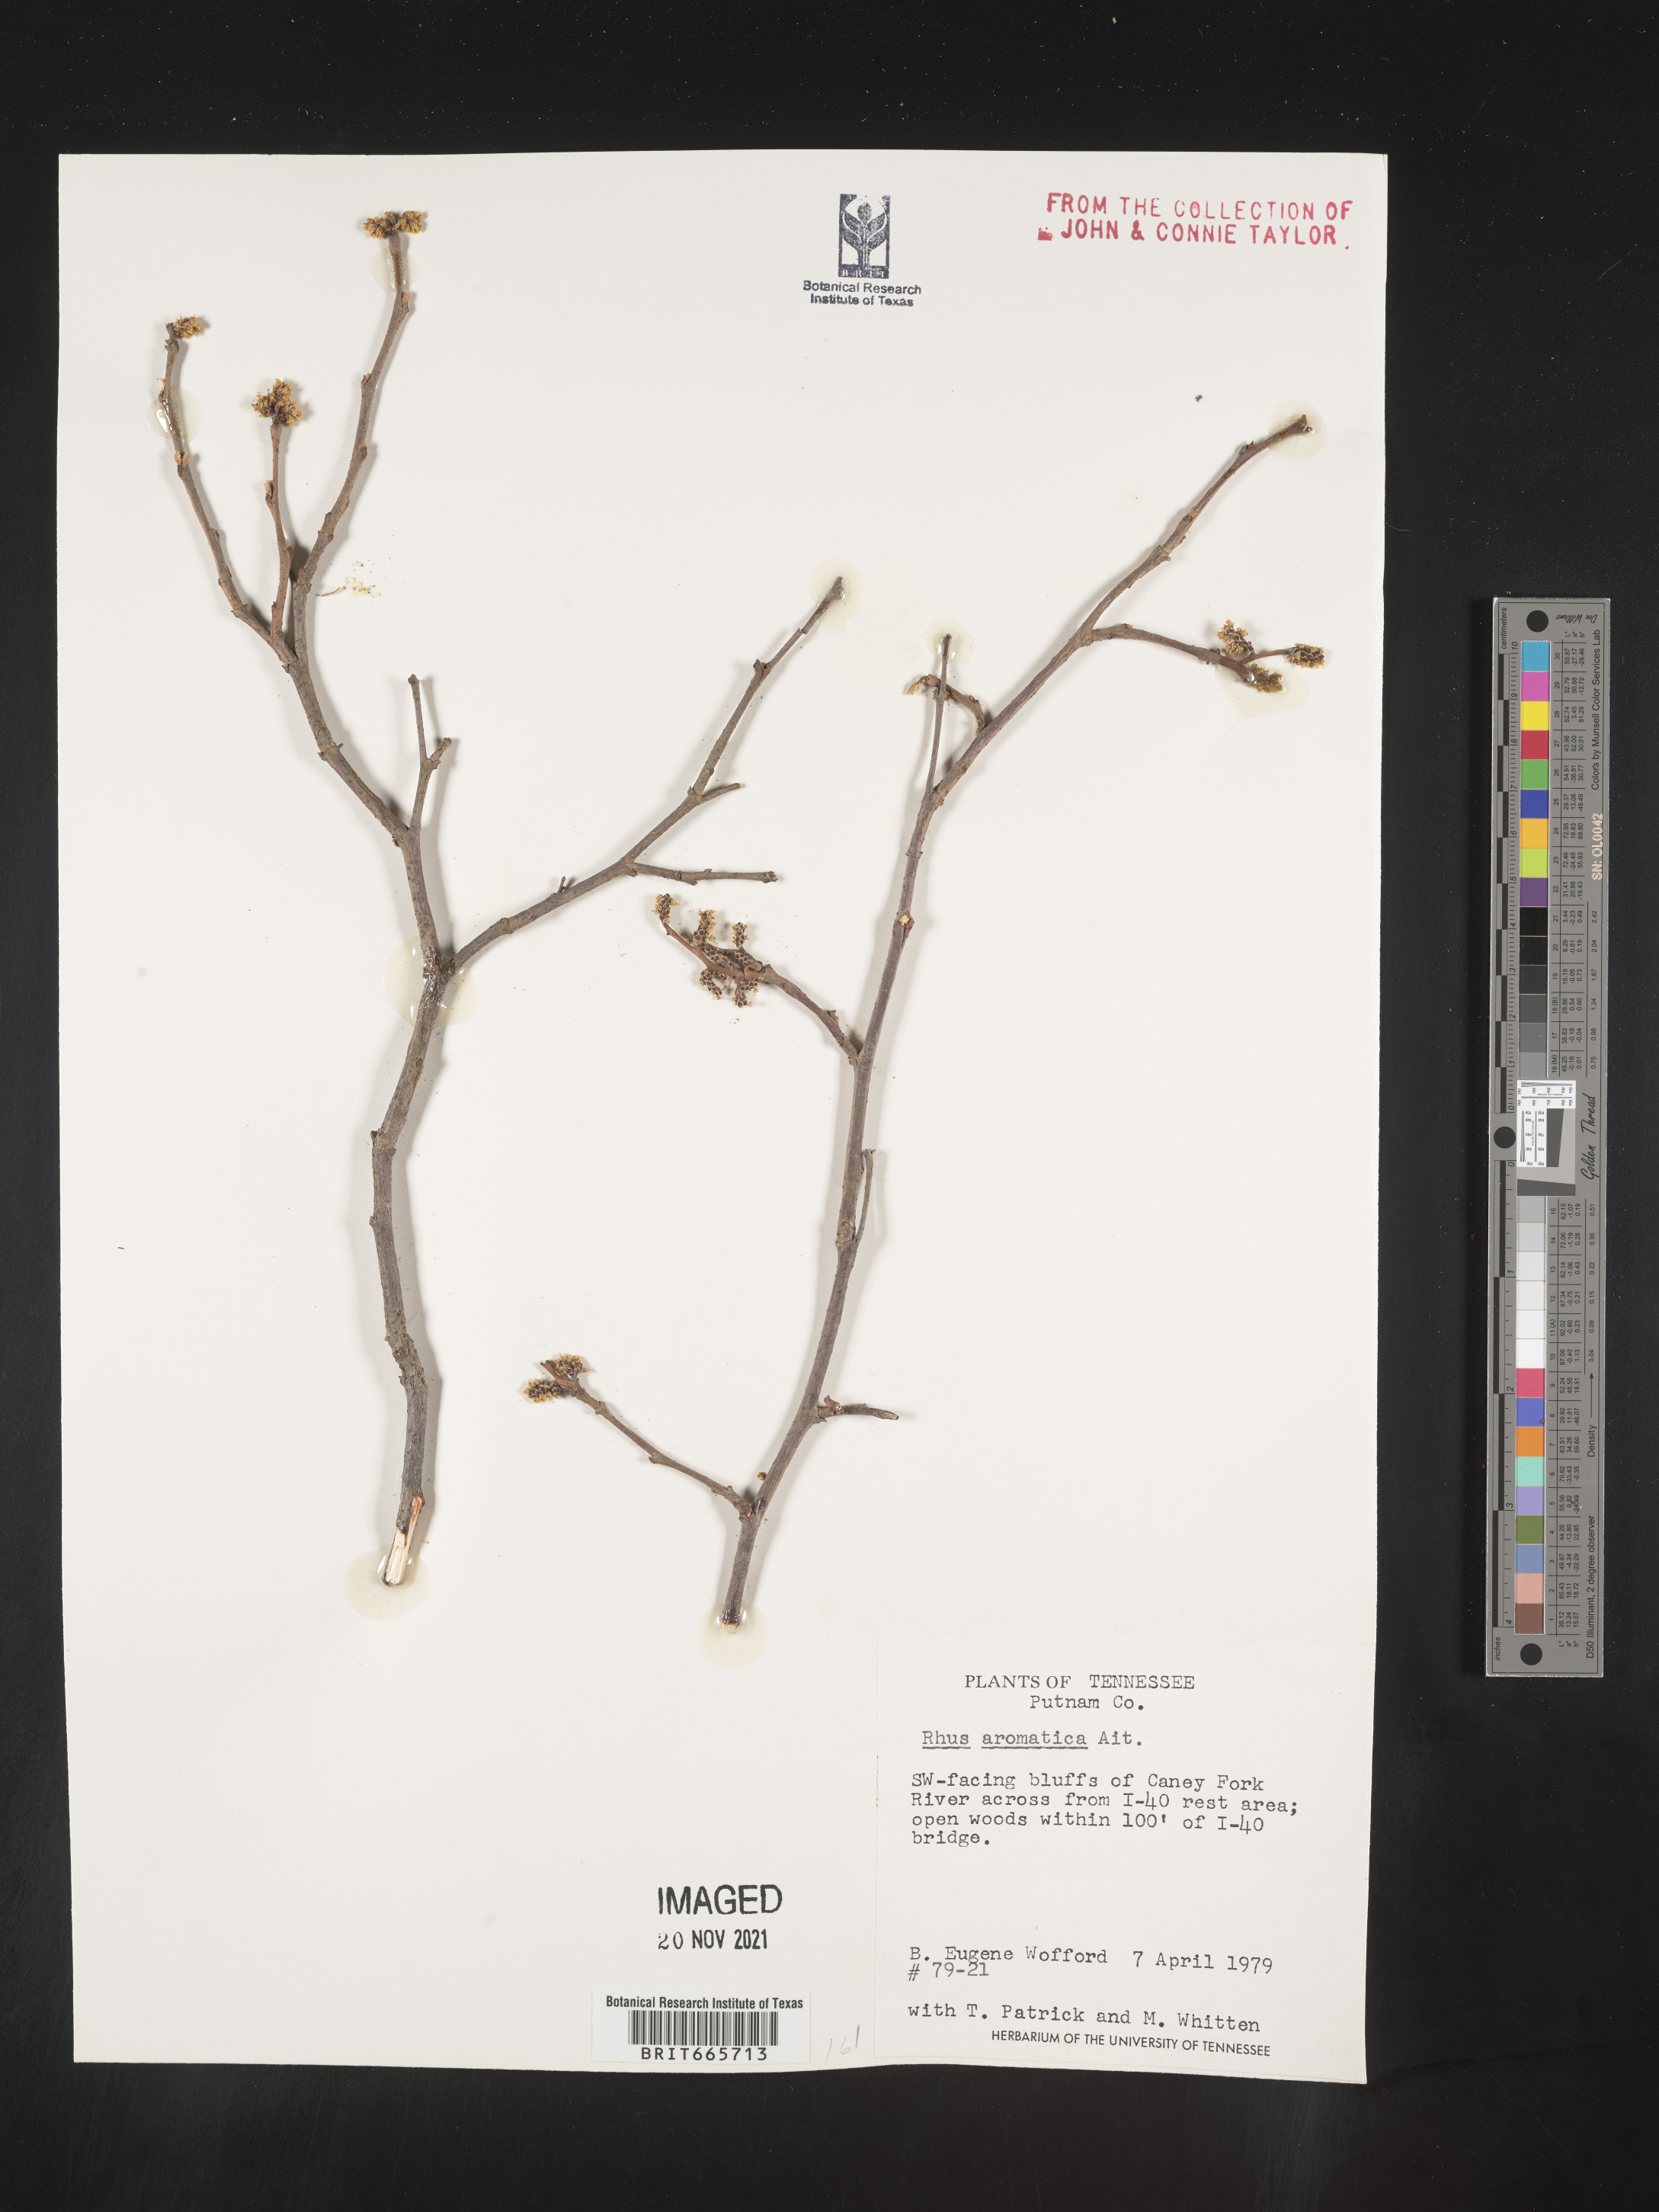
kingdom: Plantae
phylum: Tracheophyta
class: Magnoliopsida
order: Sapindales
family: Anacardiaceae
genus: Rhus
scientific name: Rhus aromatica
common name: Aromatic sumac
